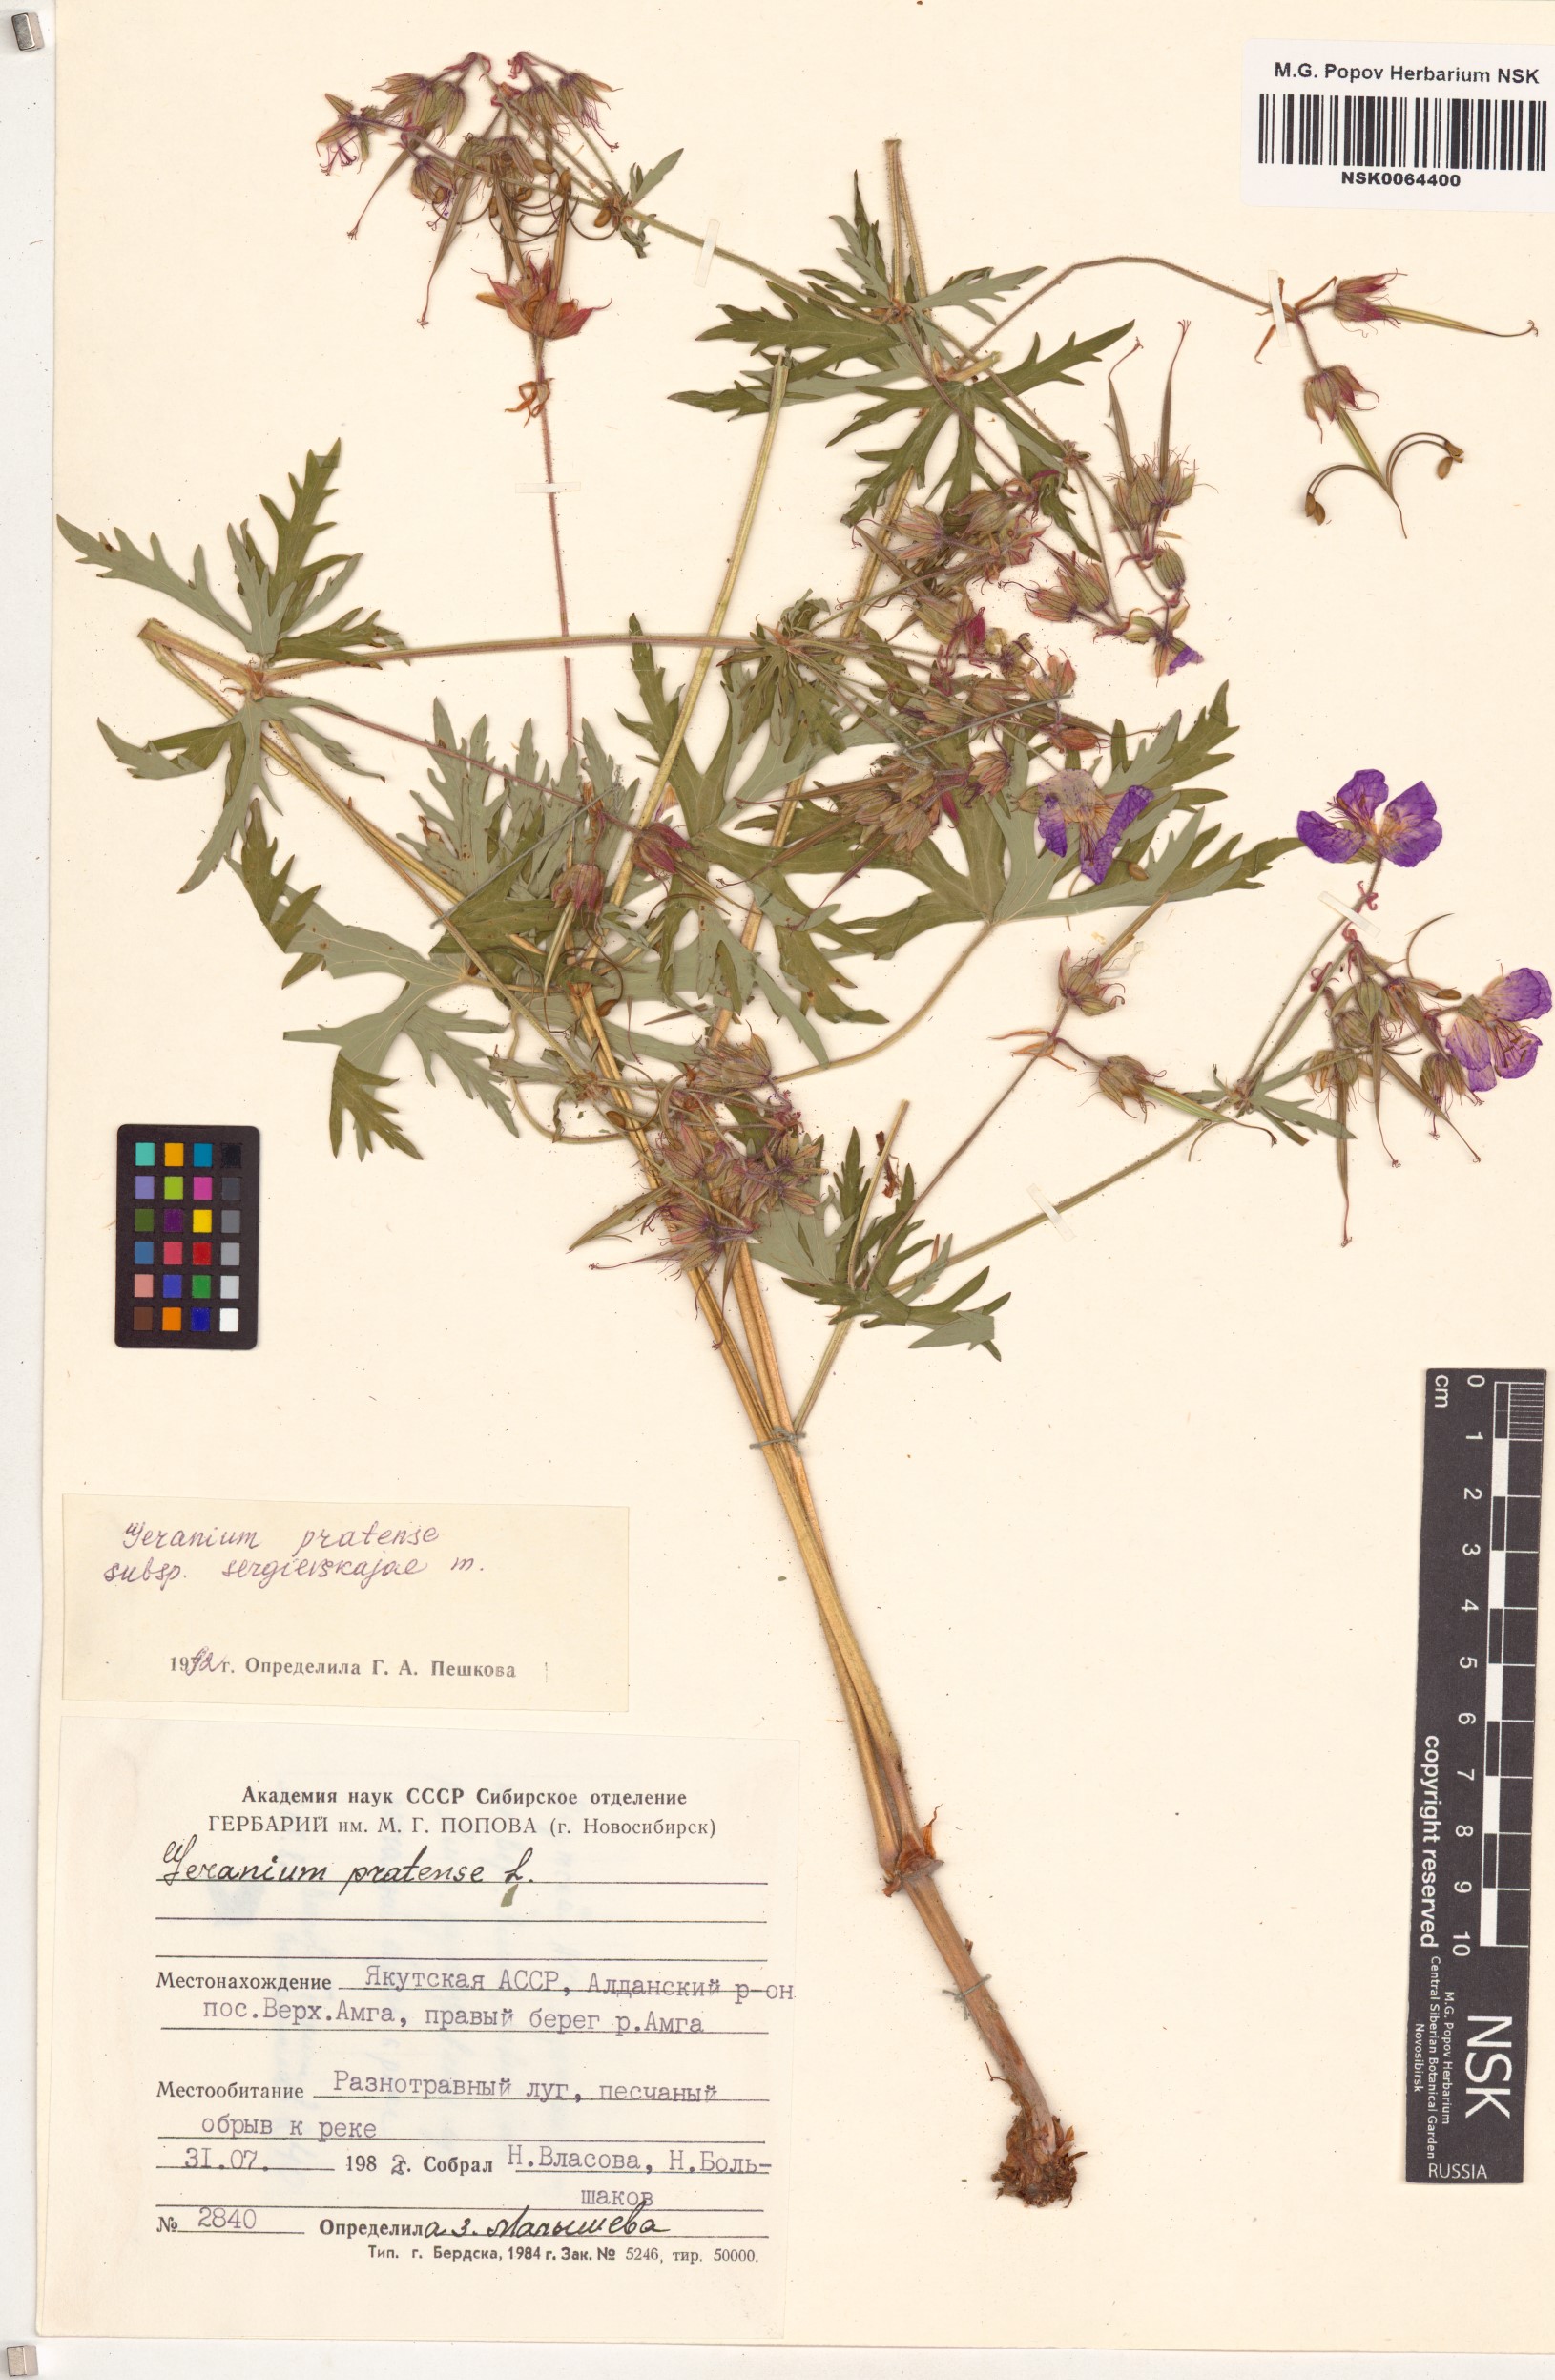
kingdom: Plantae
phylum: Tracheophyta
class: Magnoliopsida
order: Geraniales
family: Geraniaceae
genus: Geranium
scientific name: Geranium pratense
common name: Meadow crane's-bill
